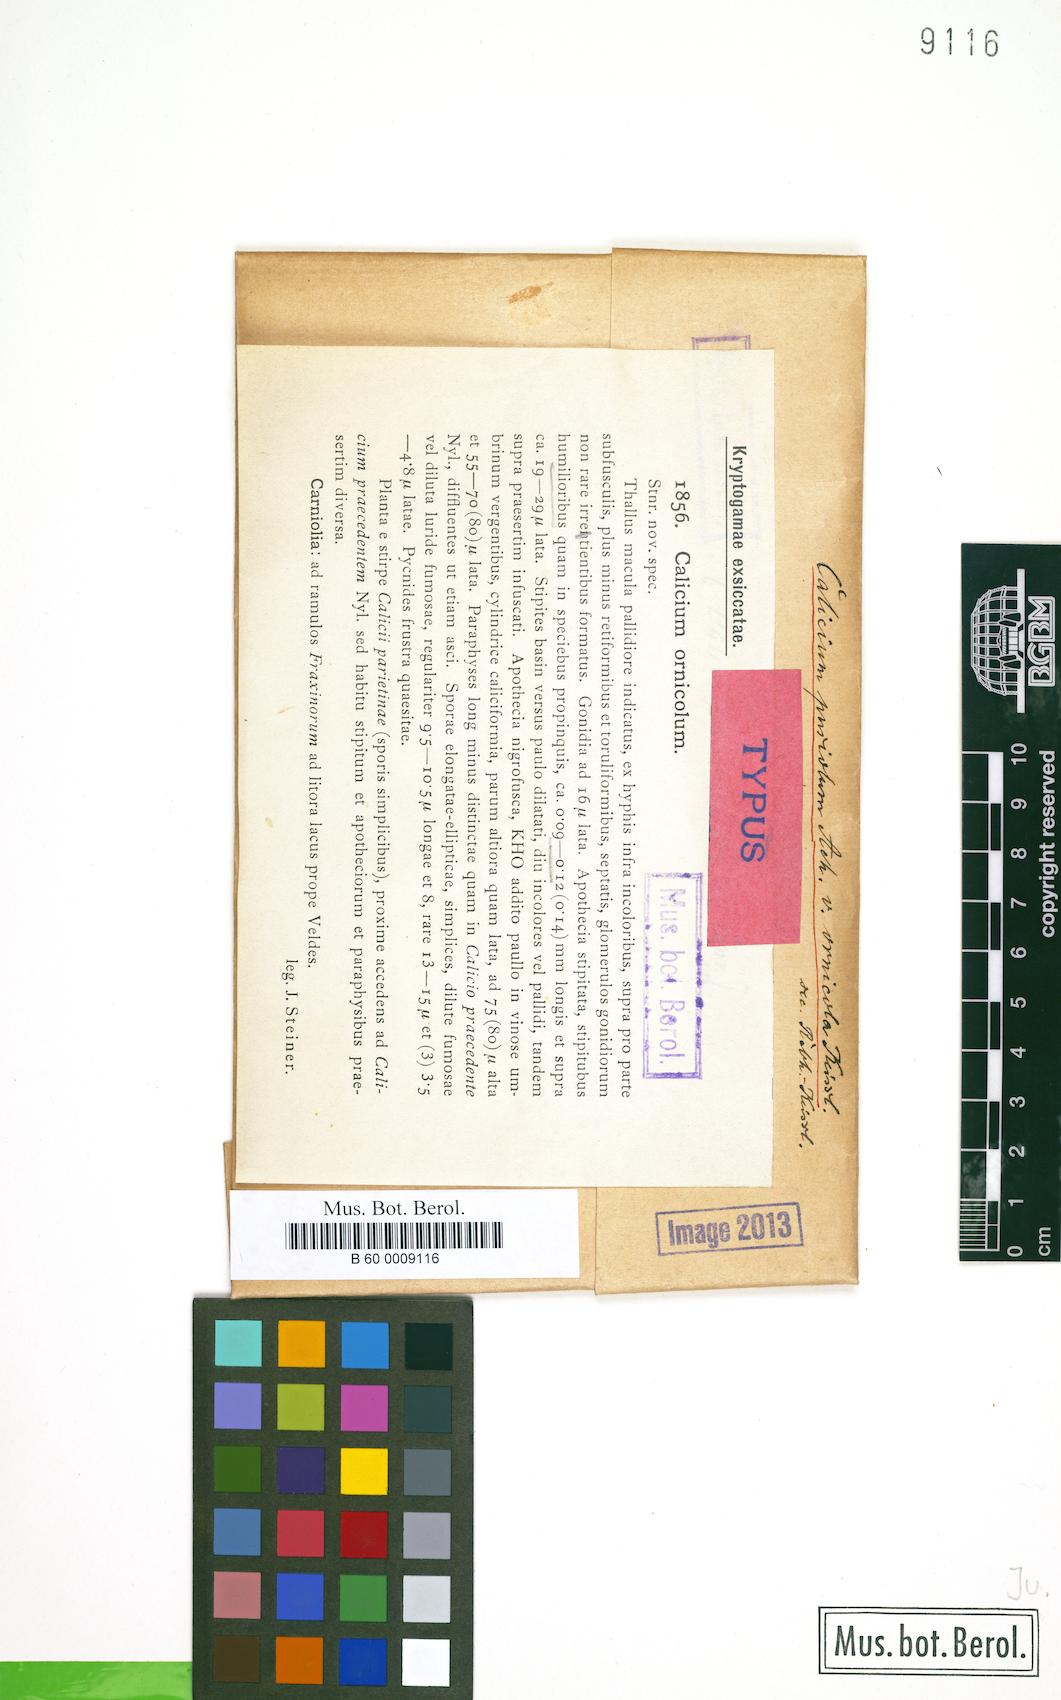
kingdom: Fungi
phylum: Ascomycota
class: Eurotiomycetes
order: Mycocaliciales
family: Mycocaliciaceae
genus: Chaenothecopsis
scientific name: Chaenothecopsis pusiola
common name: Algal pin lichen
